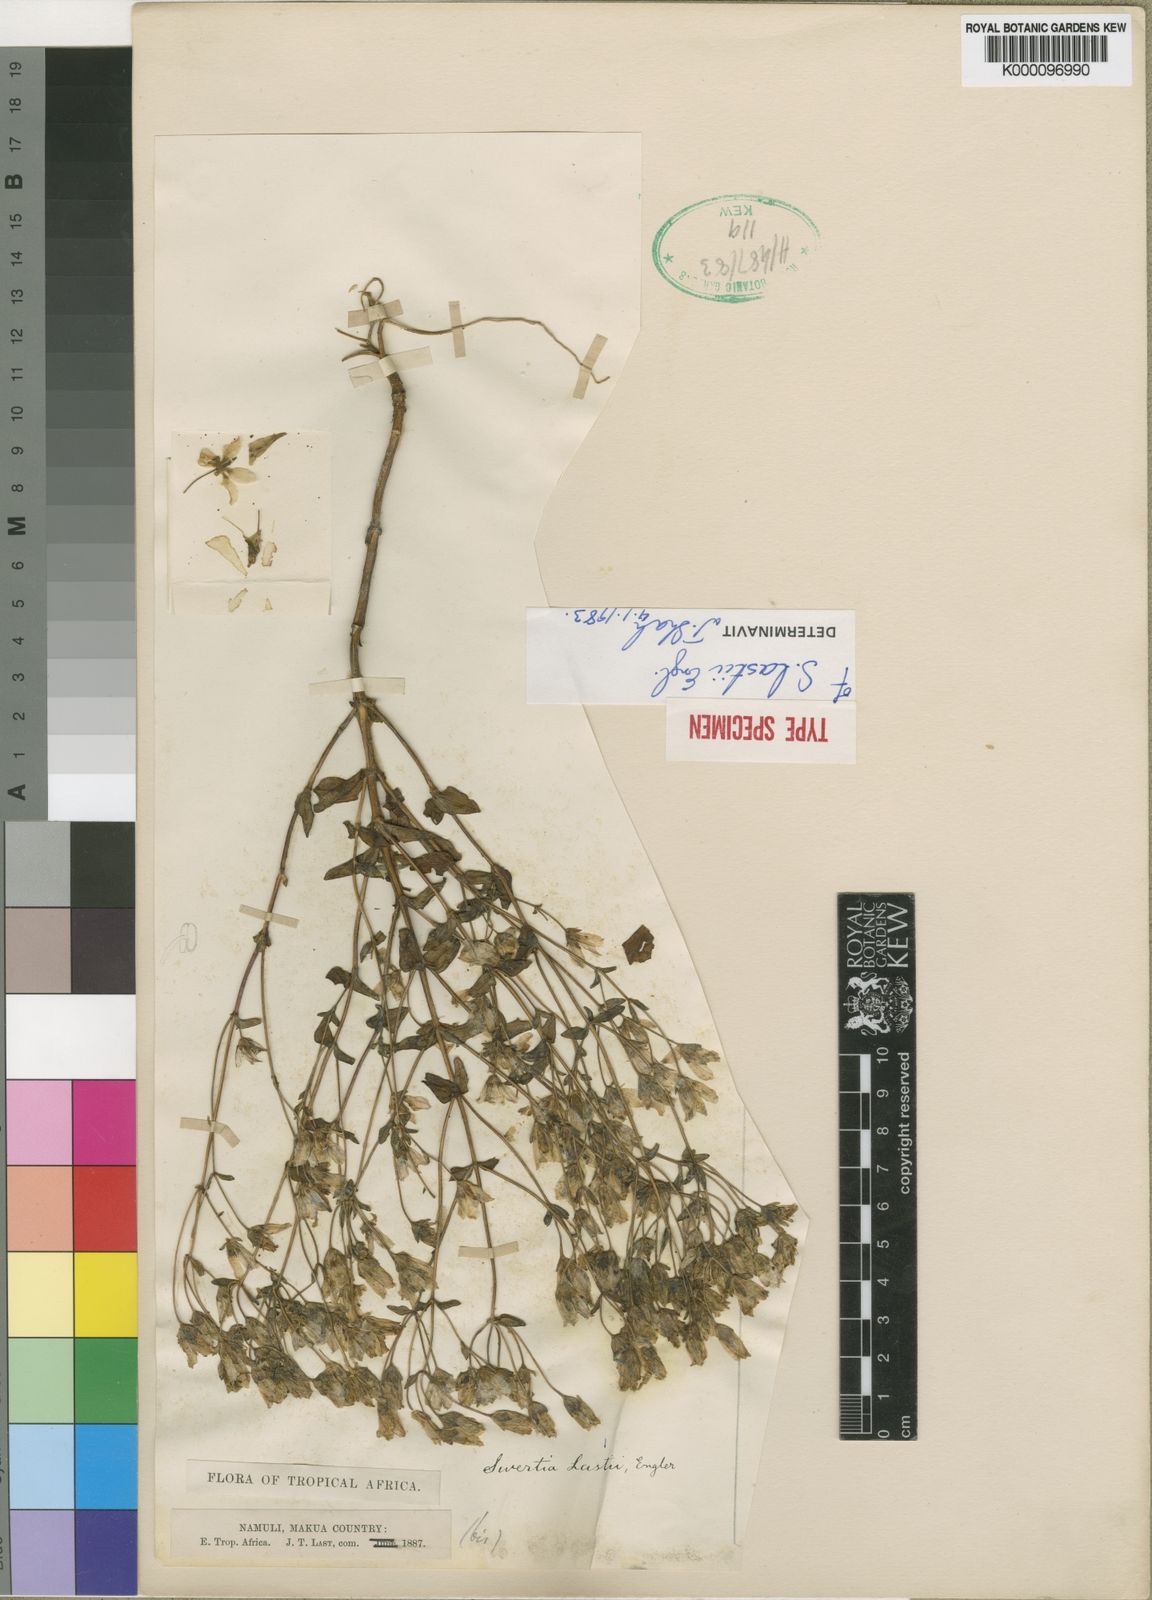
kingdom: Plantae
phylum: Tracheophyta
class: Magnoliopsida
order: Gentianales
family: Gentianaceae
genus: Swertia
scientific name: Swertia abyssinica
